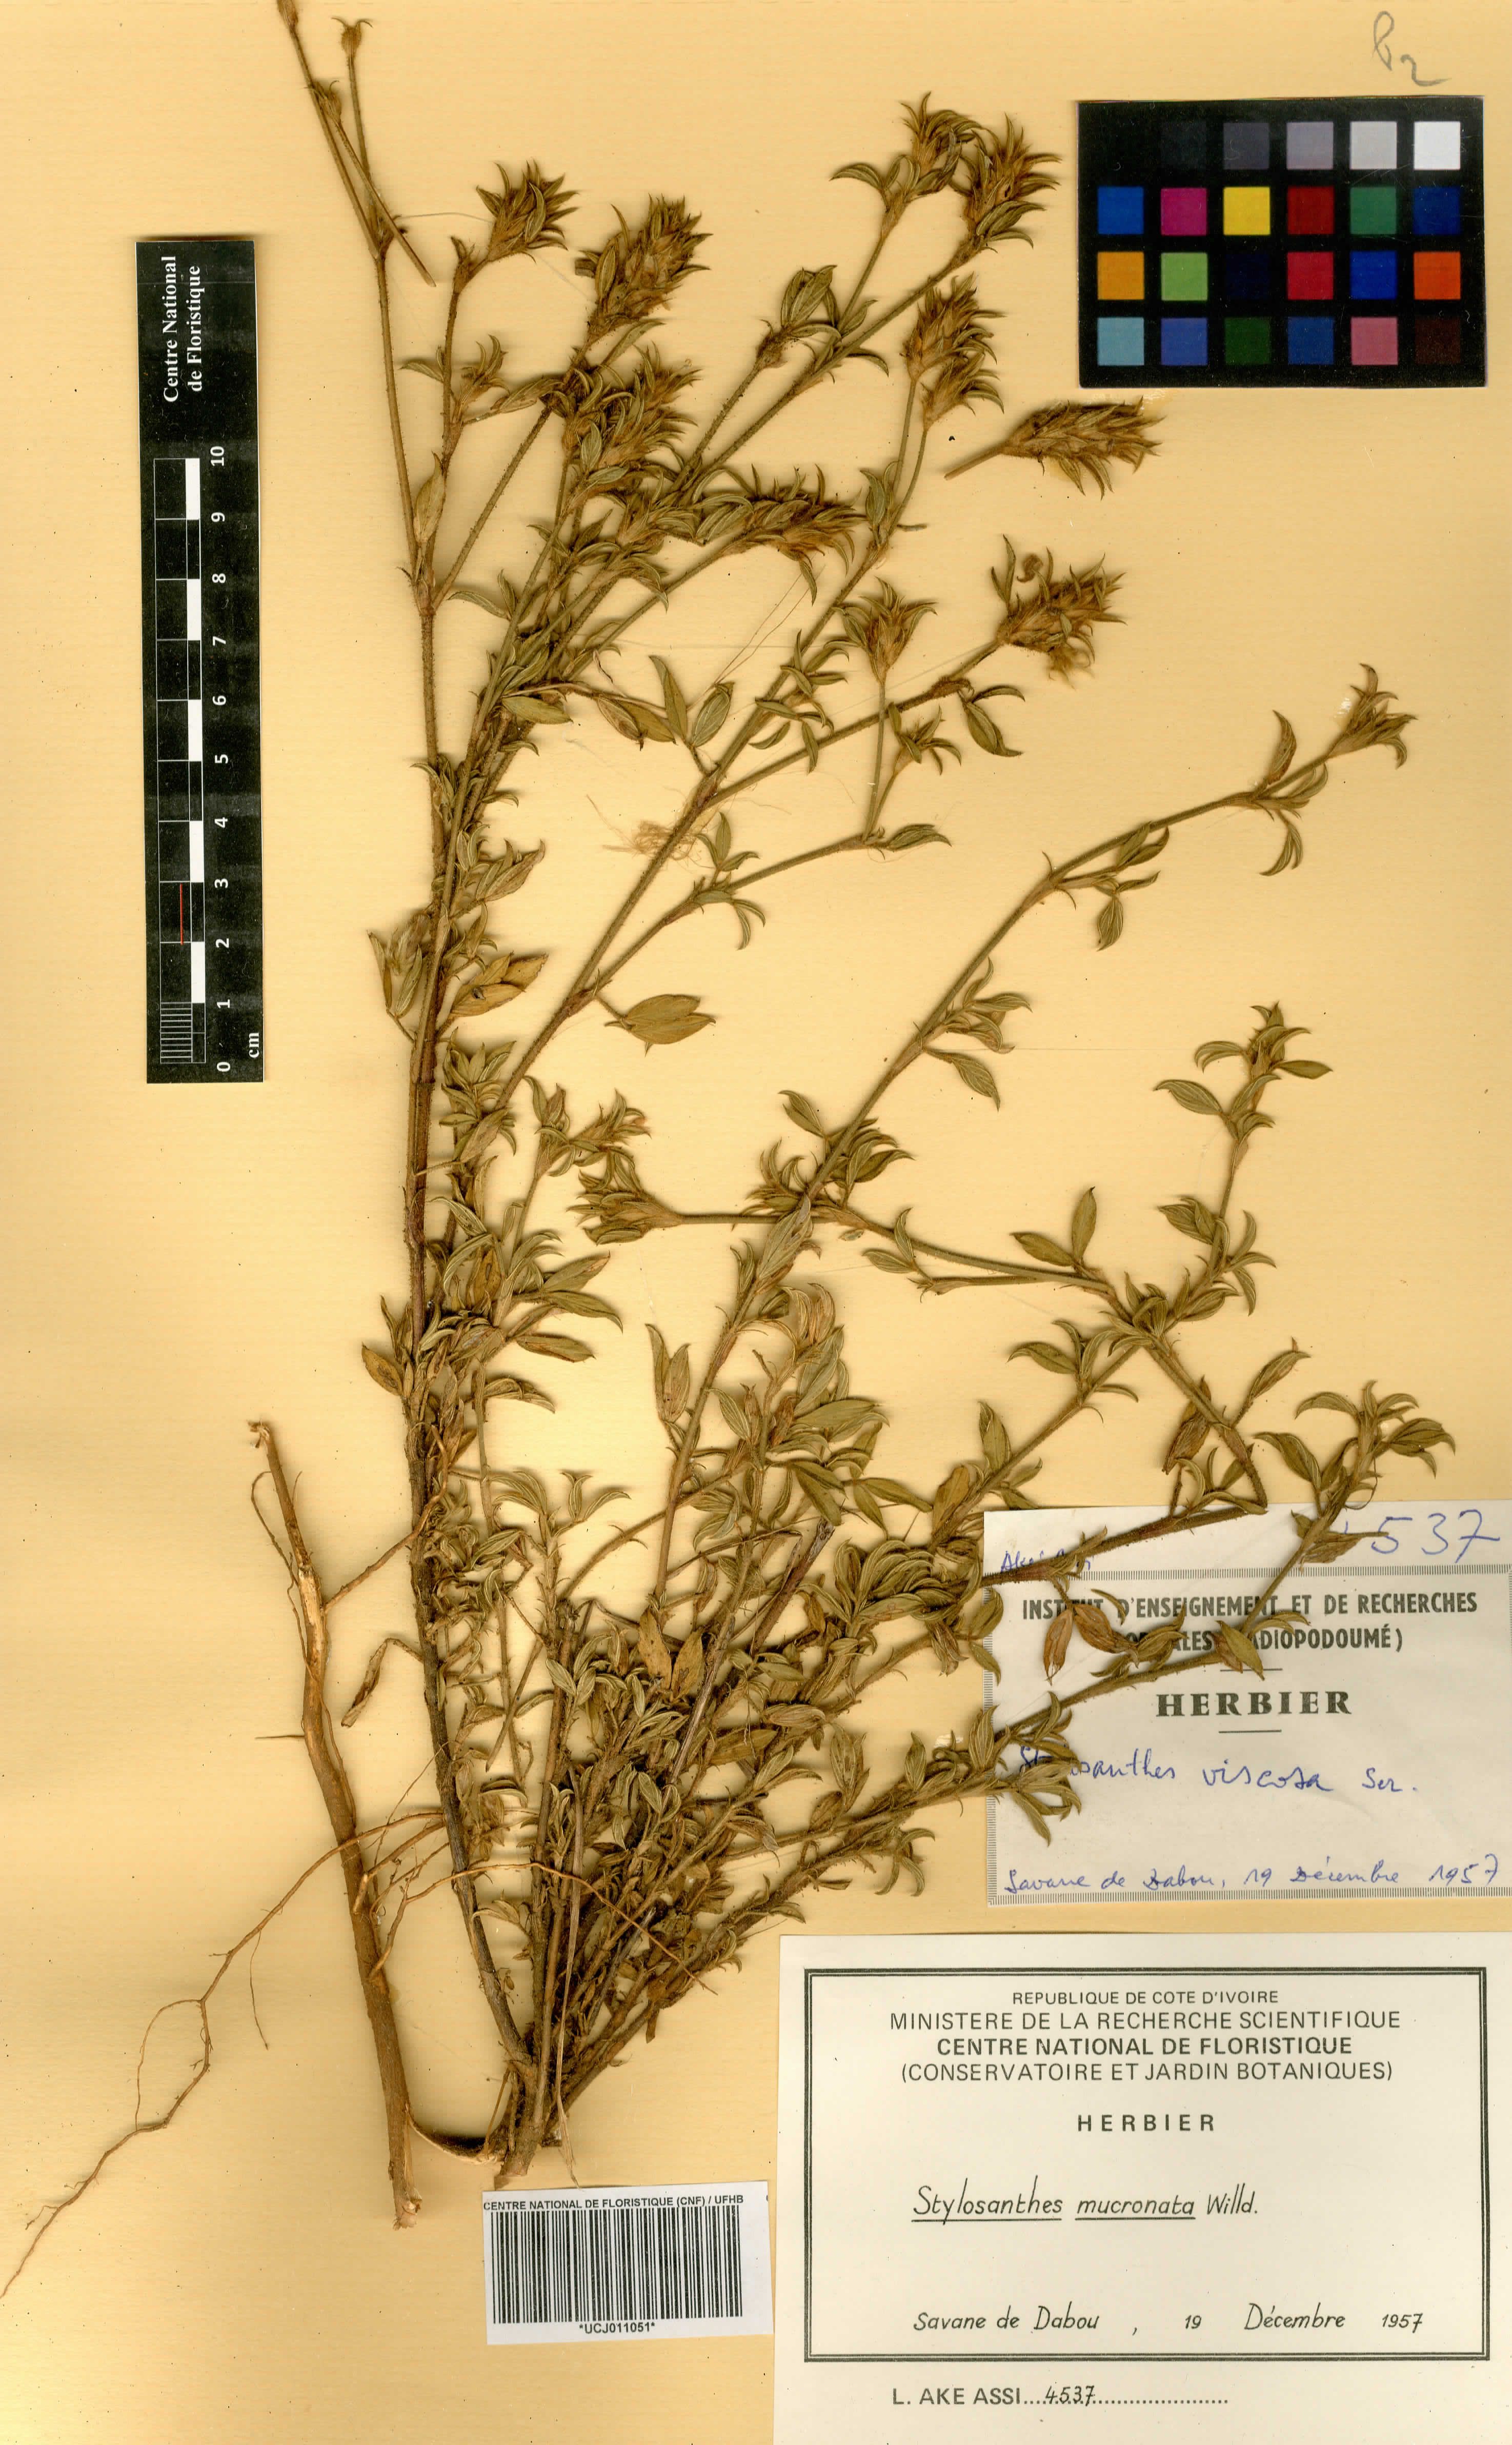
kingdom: Plantae
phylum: Tracheophyta
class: Magnoliopsida
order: Fabales
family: Fabaceae
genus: Stylosanthes
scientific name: Stylosanthes fruticosa
